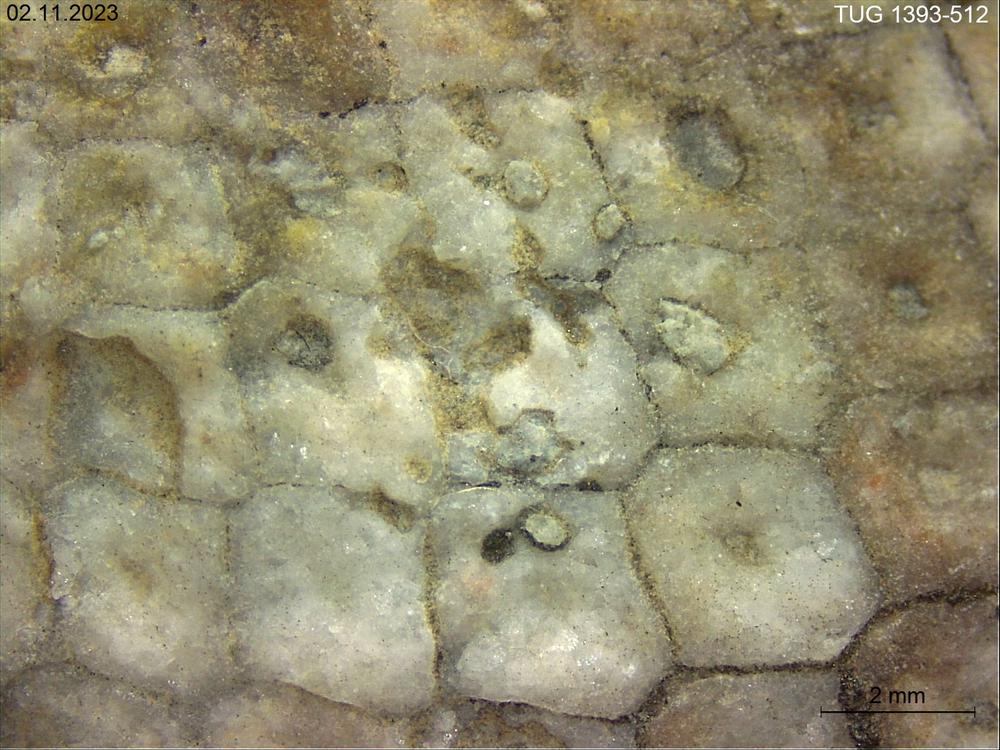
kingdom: Plantae
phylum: Chlorophyta
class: Chlorophyceae
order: Receptaculitales
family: Receptaculitaceae
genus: Receptaculites
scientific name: Receptaculites
